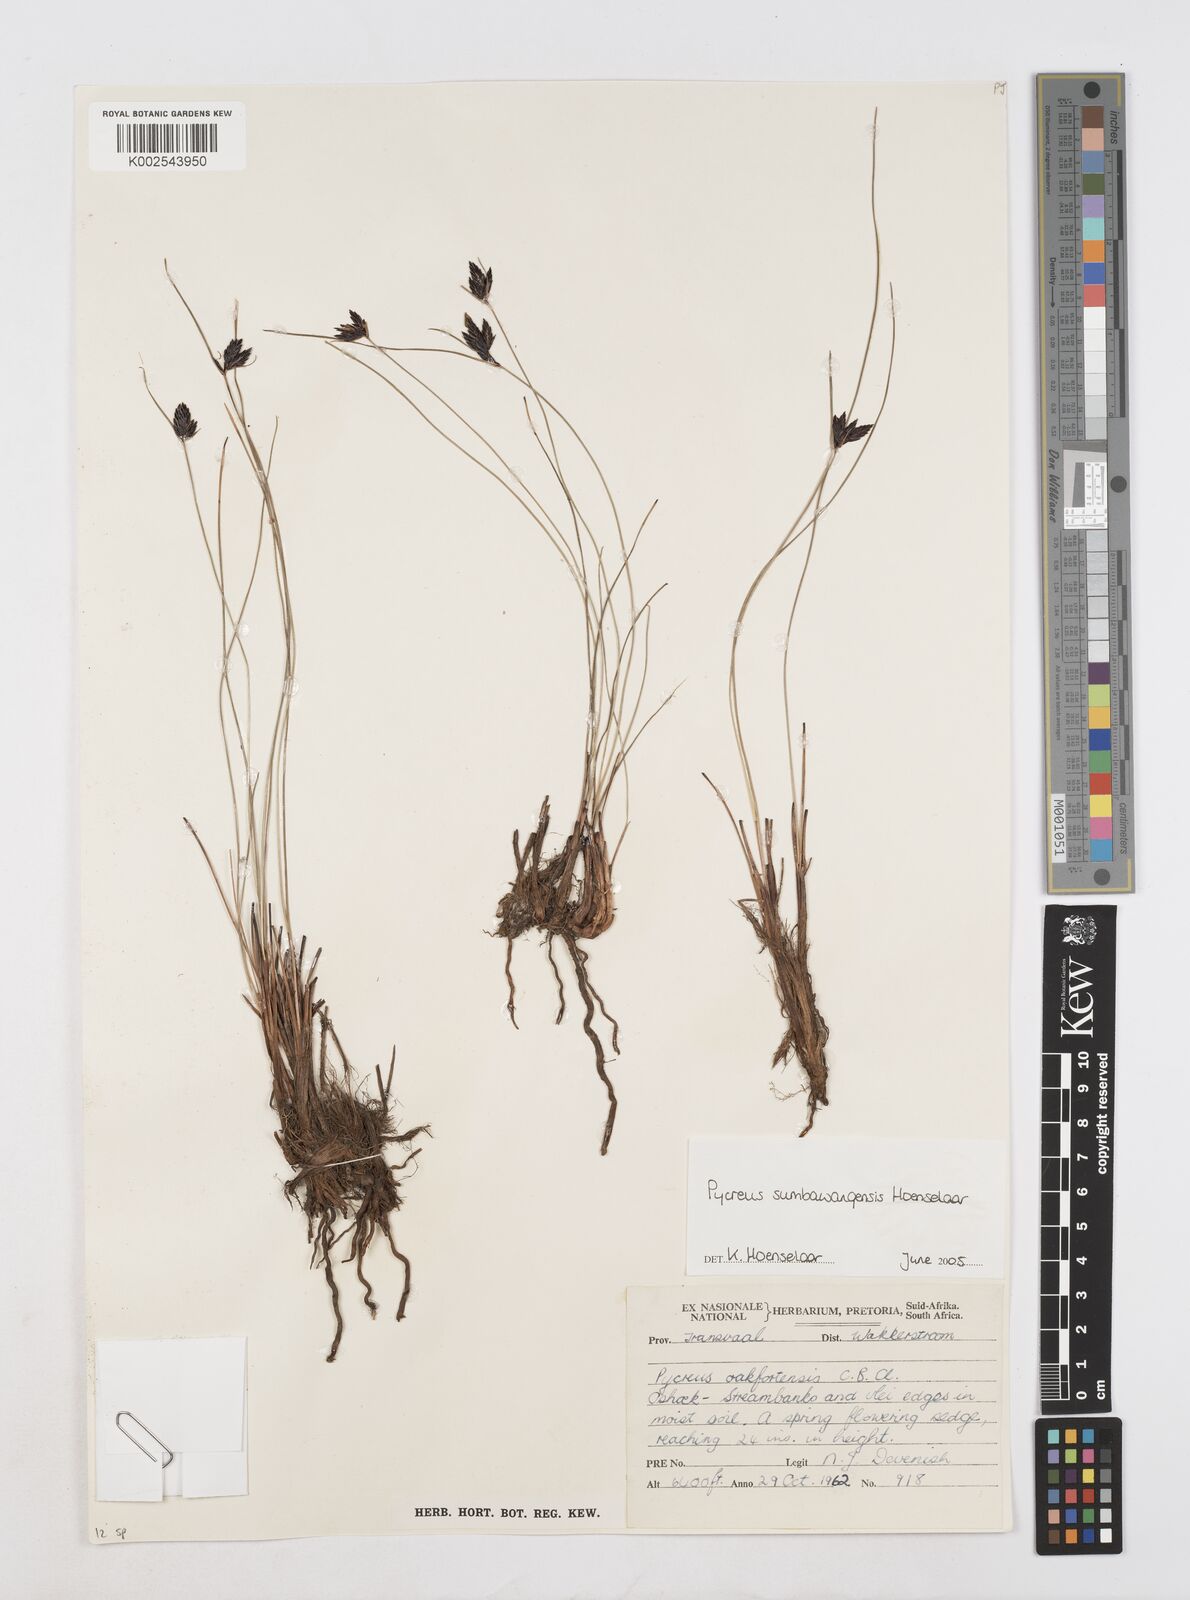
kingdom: Plantae
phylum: Tracheophyta
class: Liliopsida
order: Poales
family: Cyperaceae
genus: Cyperus
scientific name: Cyperus nigricans
